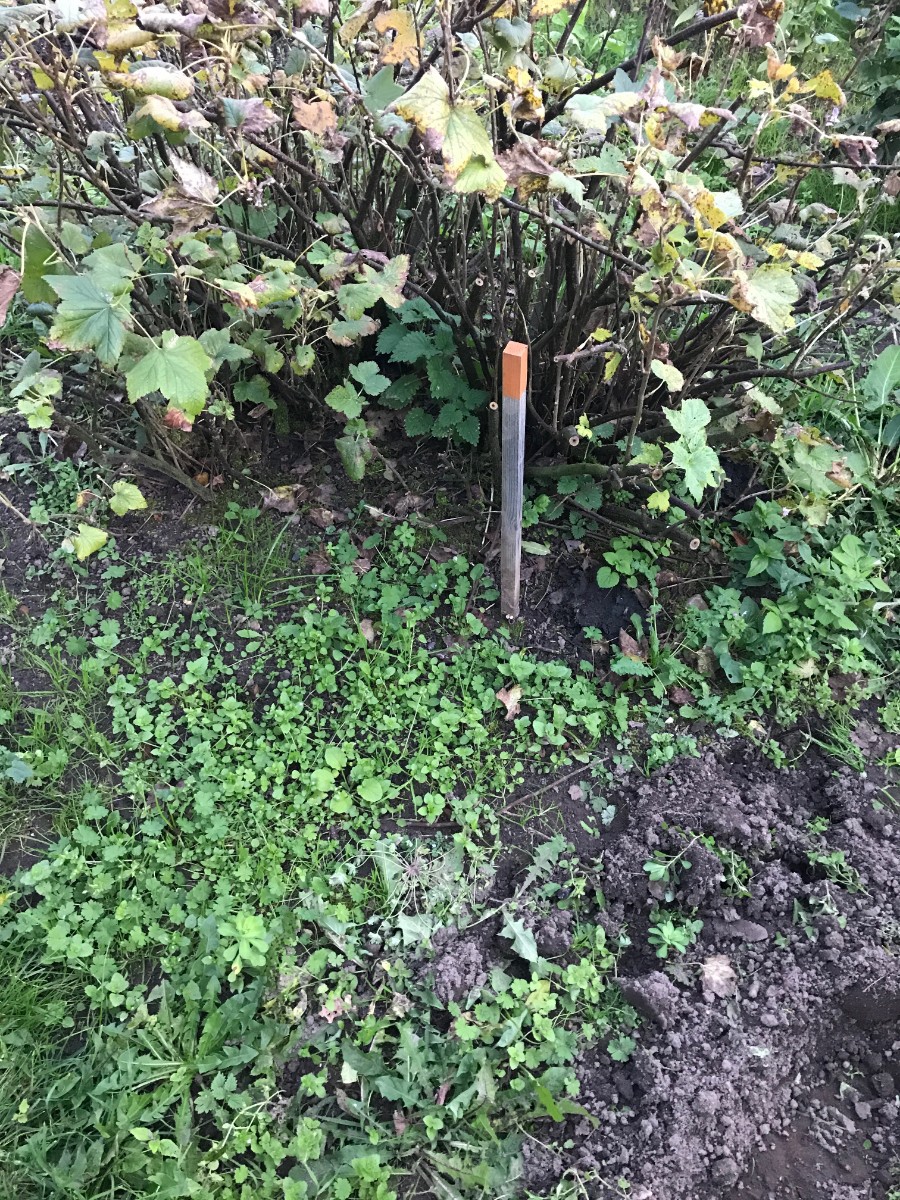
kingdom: Fungi
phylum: Basidiomycota
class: Agaricomycetes
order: Agaricales
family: Agaricaceae
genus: Cyathus
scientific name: Cyathus olla
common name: klokke-redesvamp
